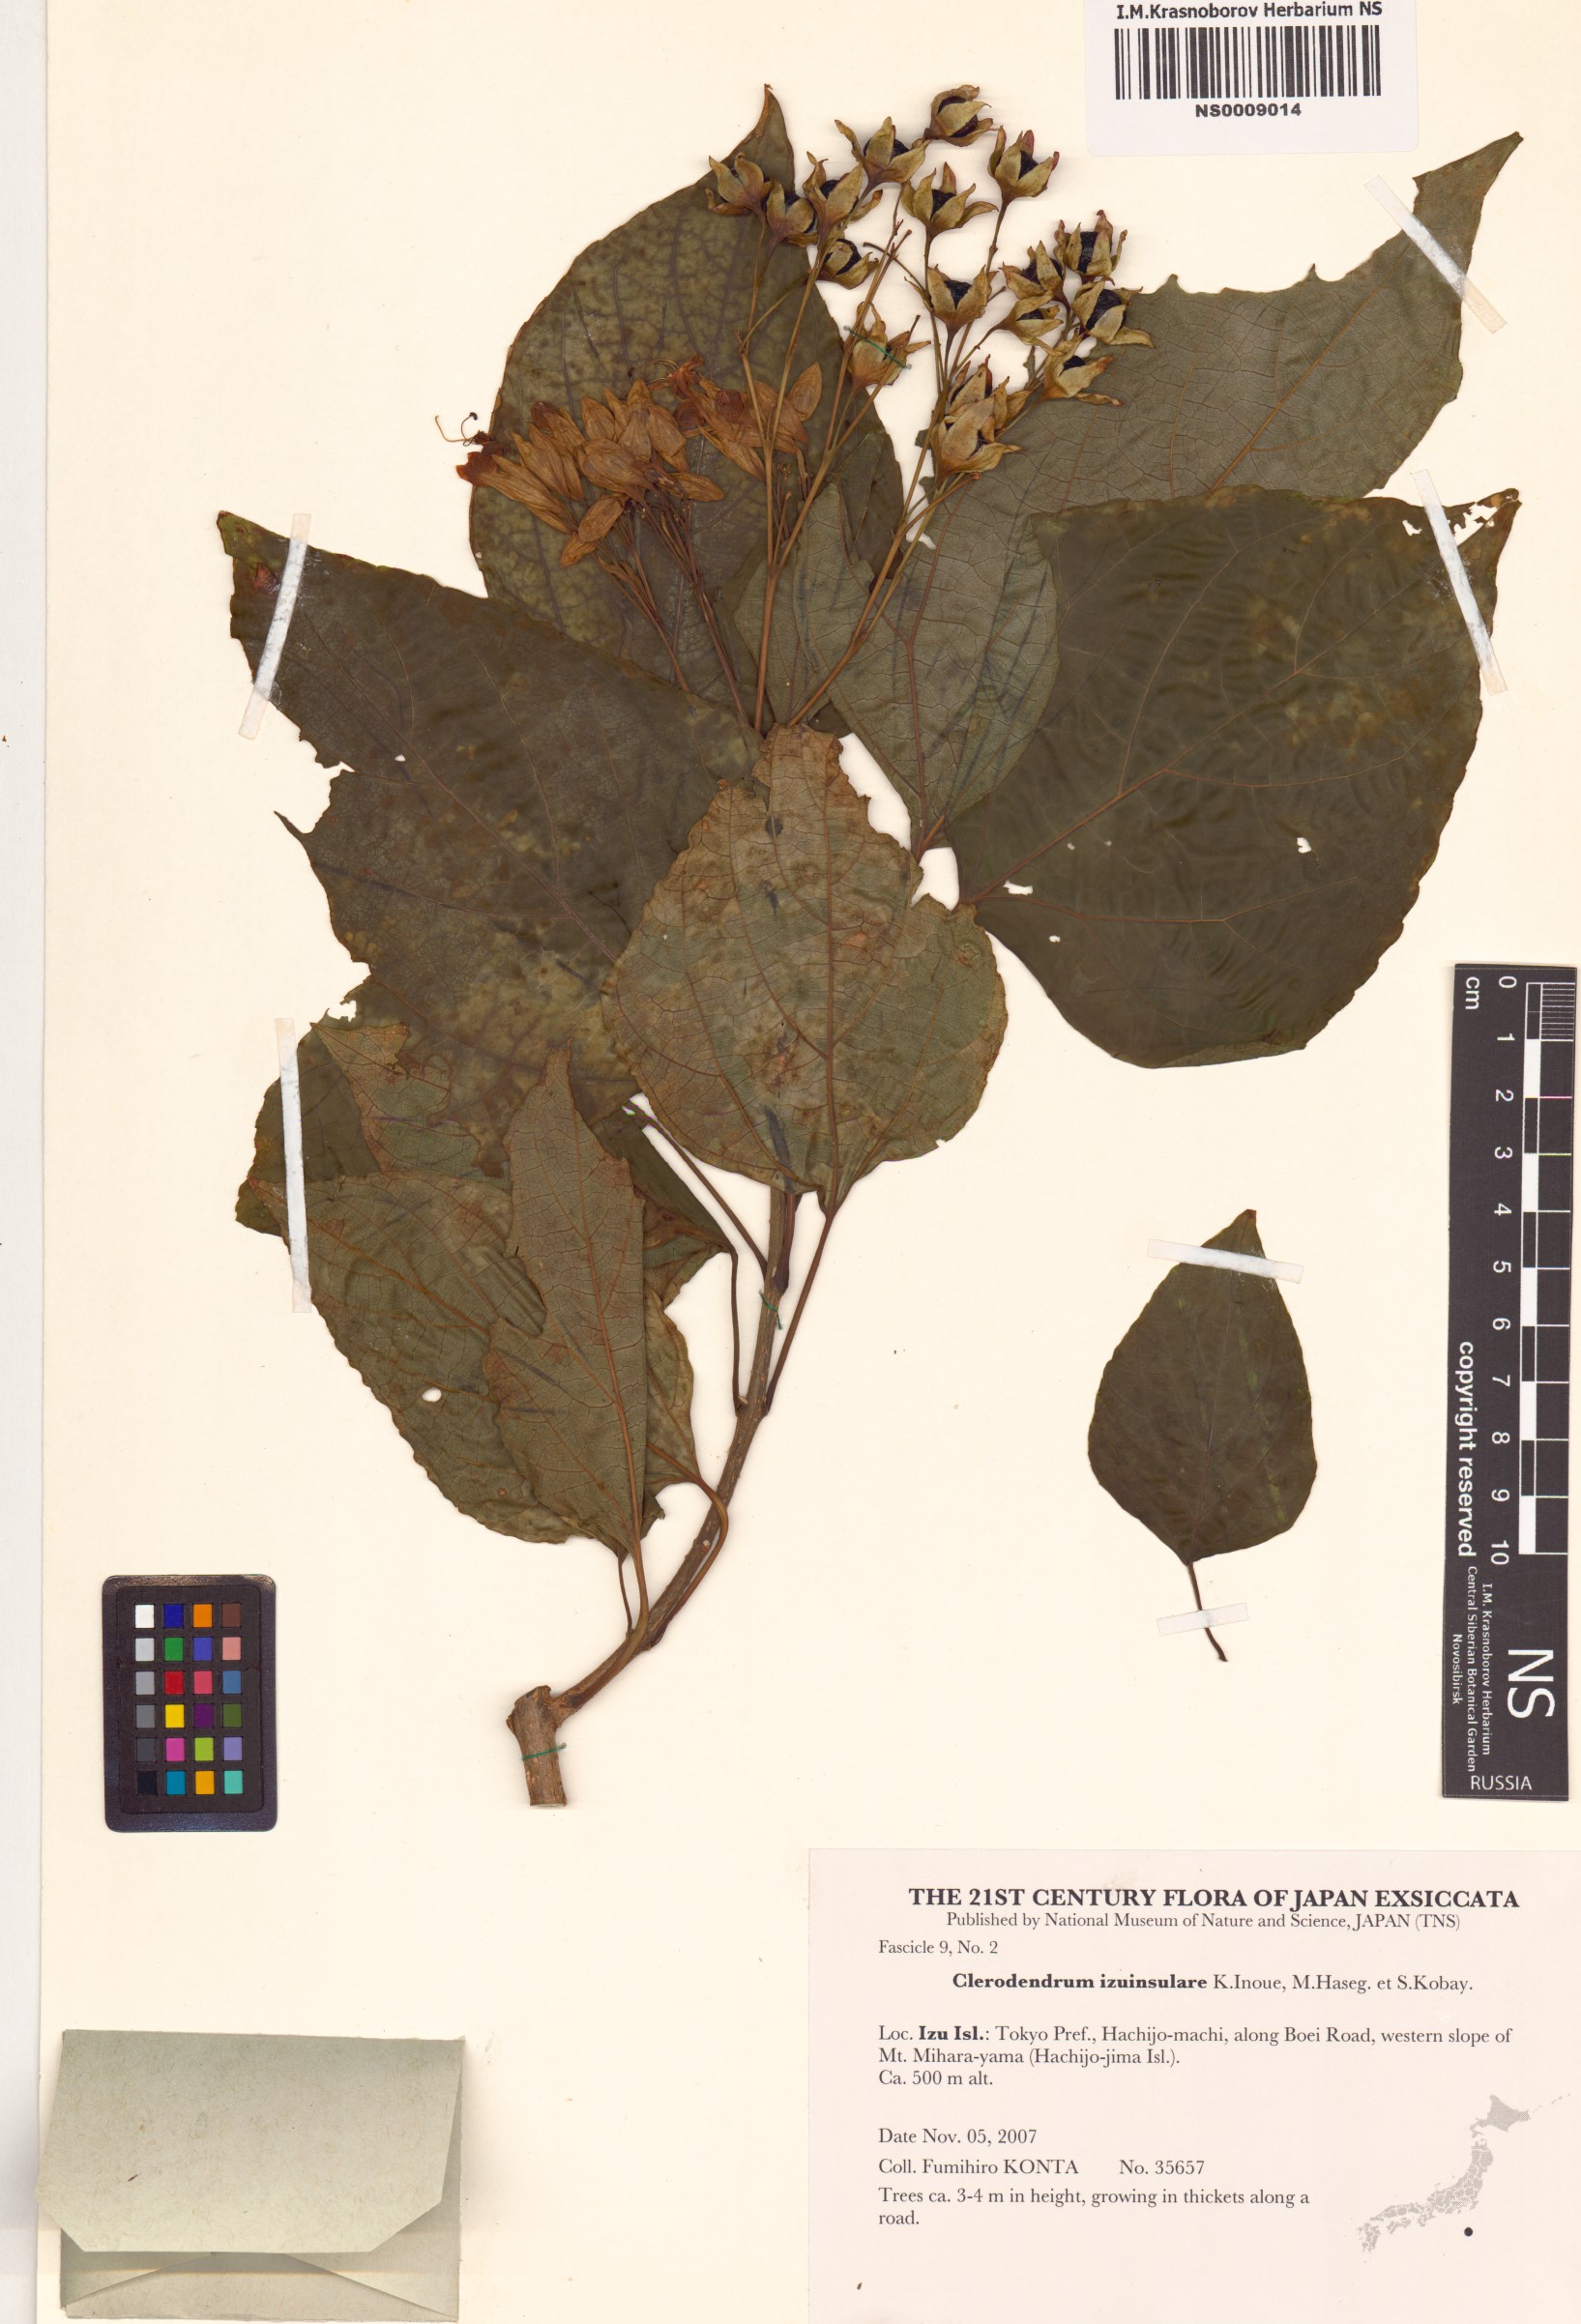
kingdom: Plantae
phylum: Tracheophyta
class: Magnoliopsida
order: Lamiales
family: Lamiaceae
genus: Clerodendrum
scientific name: Clerodendrum izuinsulare
